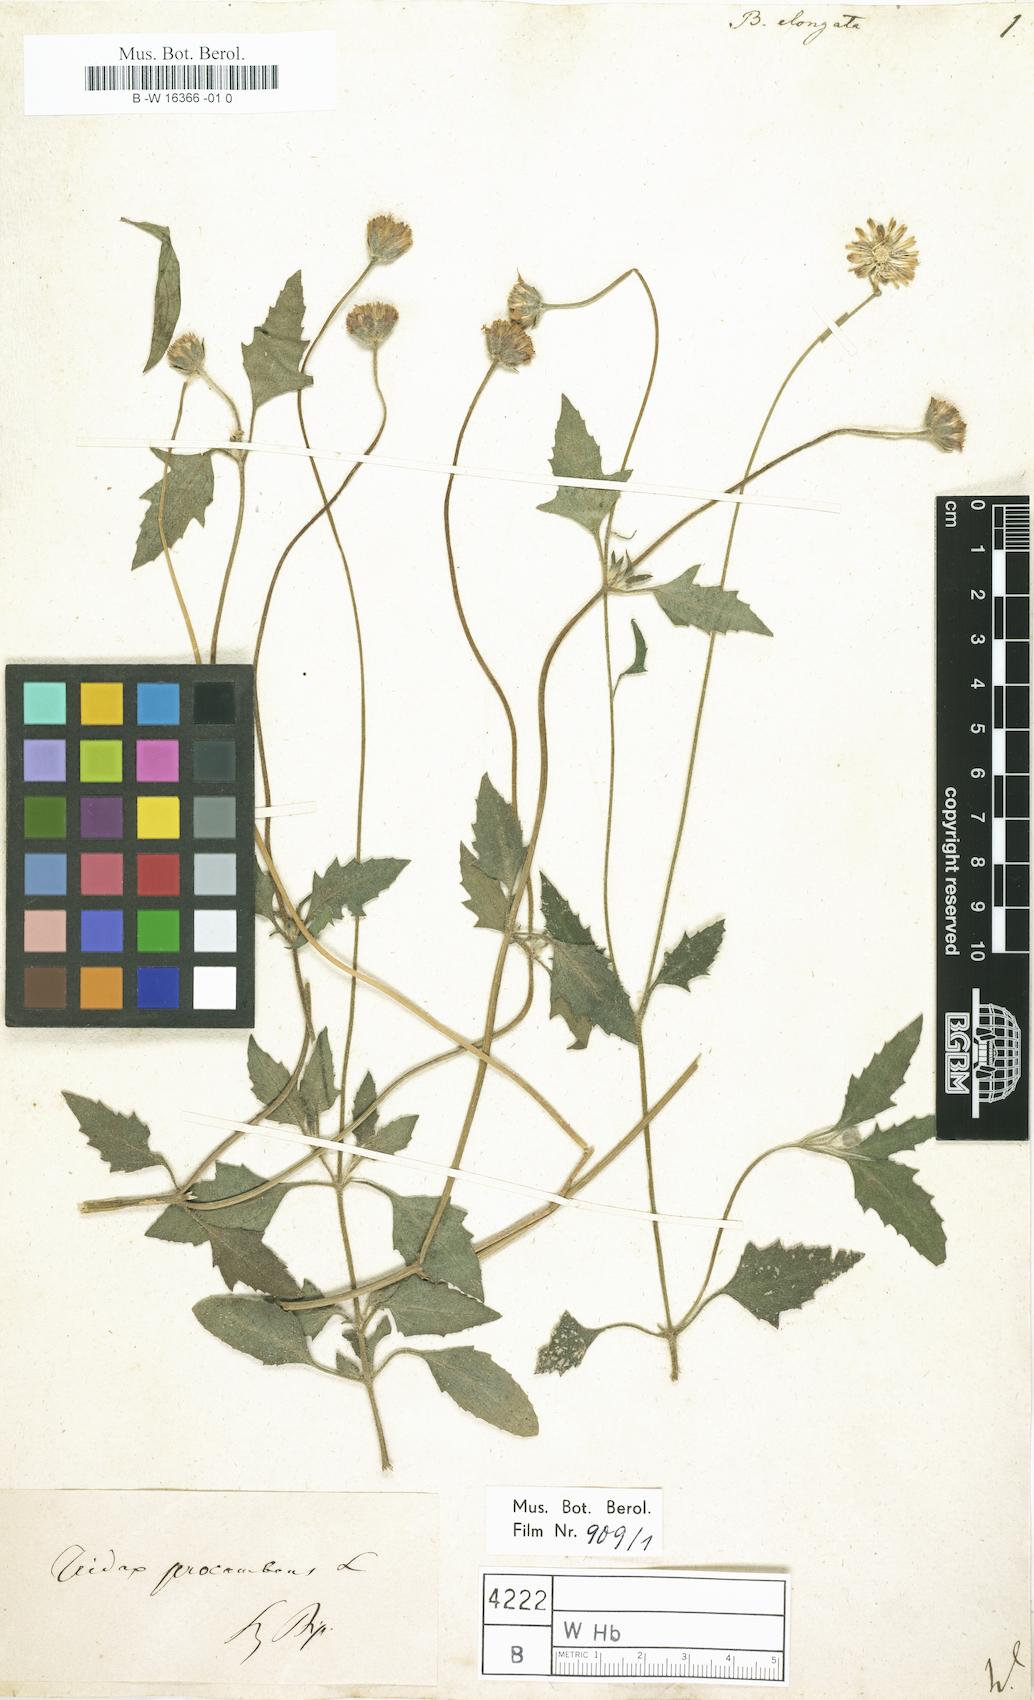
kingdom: Plantae
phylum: Tracheophyta
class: Magnoliopsida
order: Asterales
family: Asteraceae
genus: Tridax
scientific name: Tridax procumbens
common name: Coatbuttons
